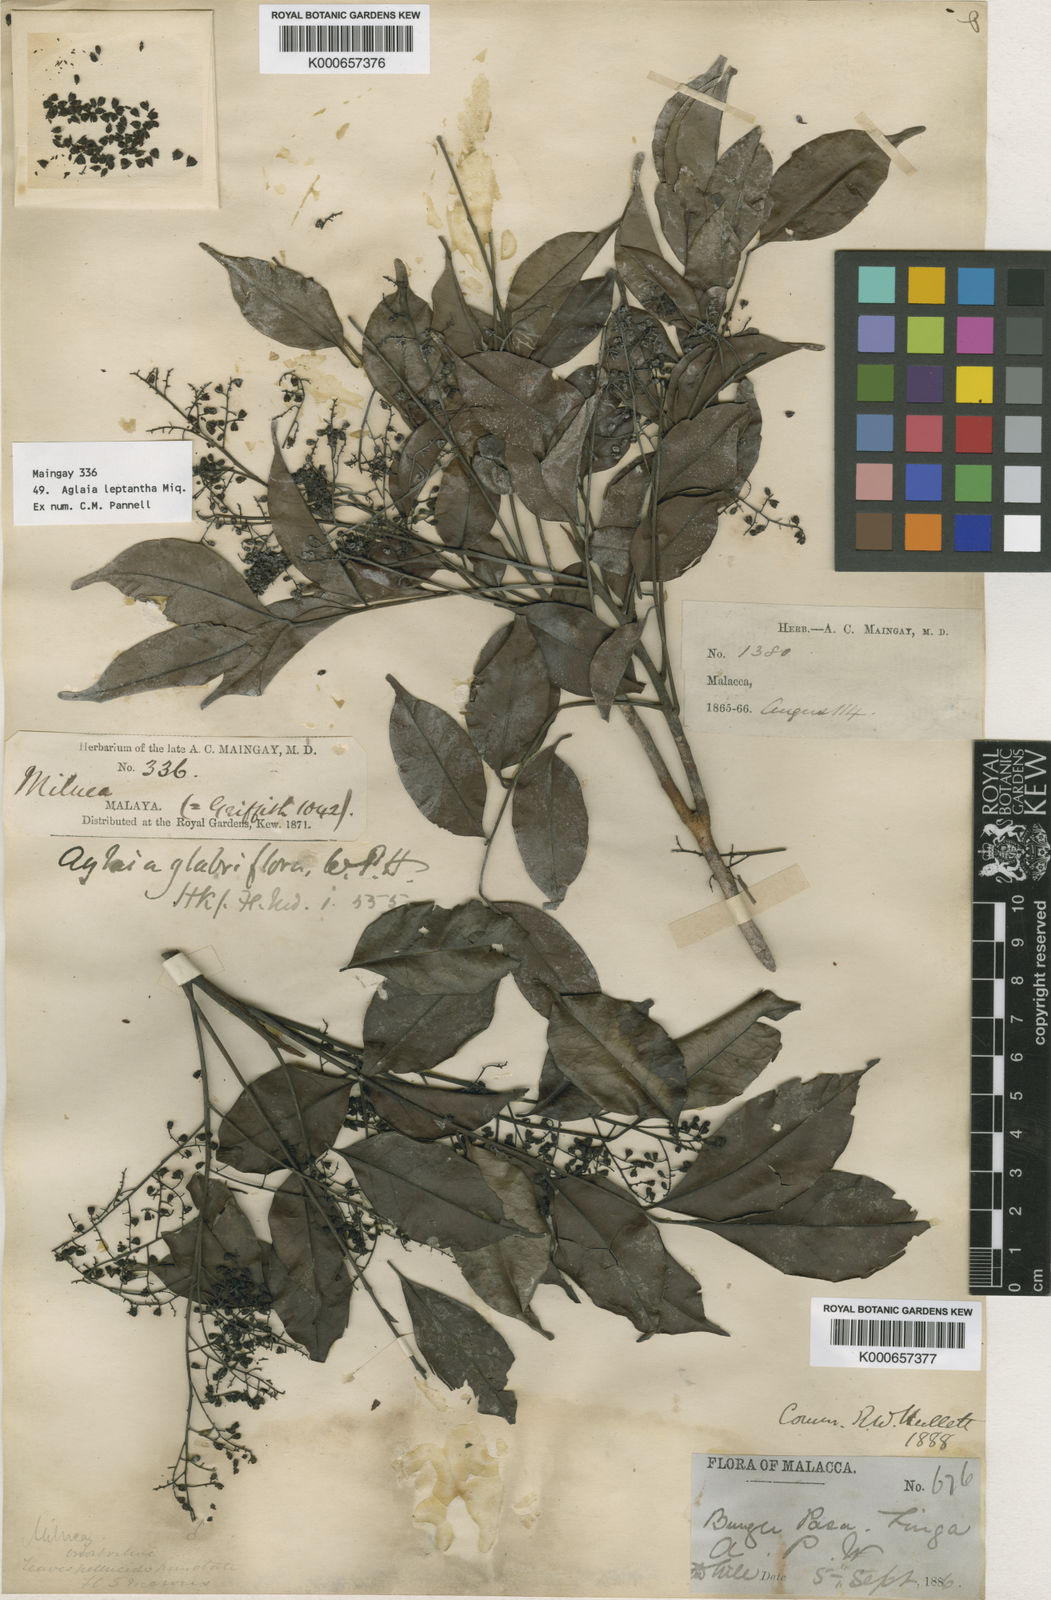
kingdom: Plantae
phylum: Tracheophyta
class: Magnoliopsida
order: Sapindales
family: Meliaceae
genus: Aglaia
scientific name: Aglaia leptantha
